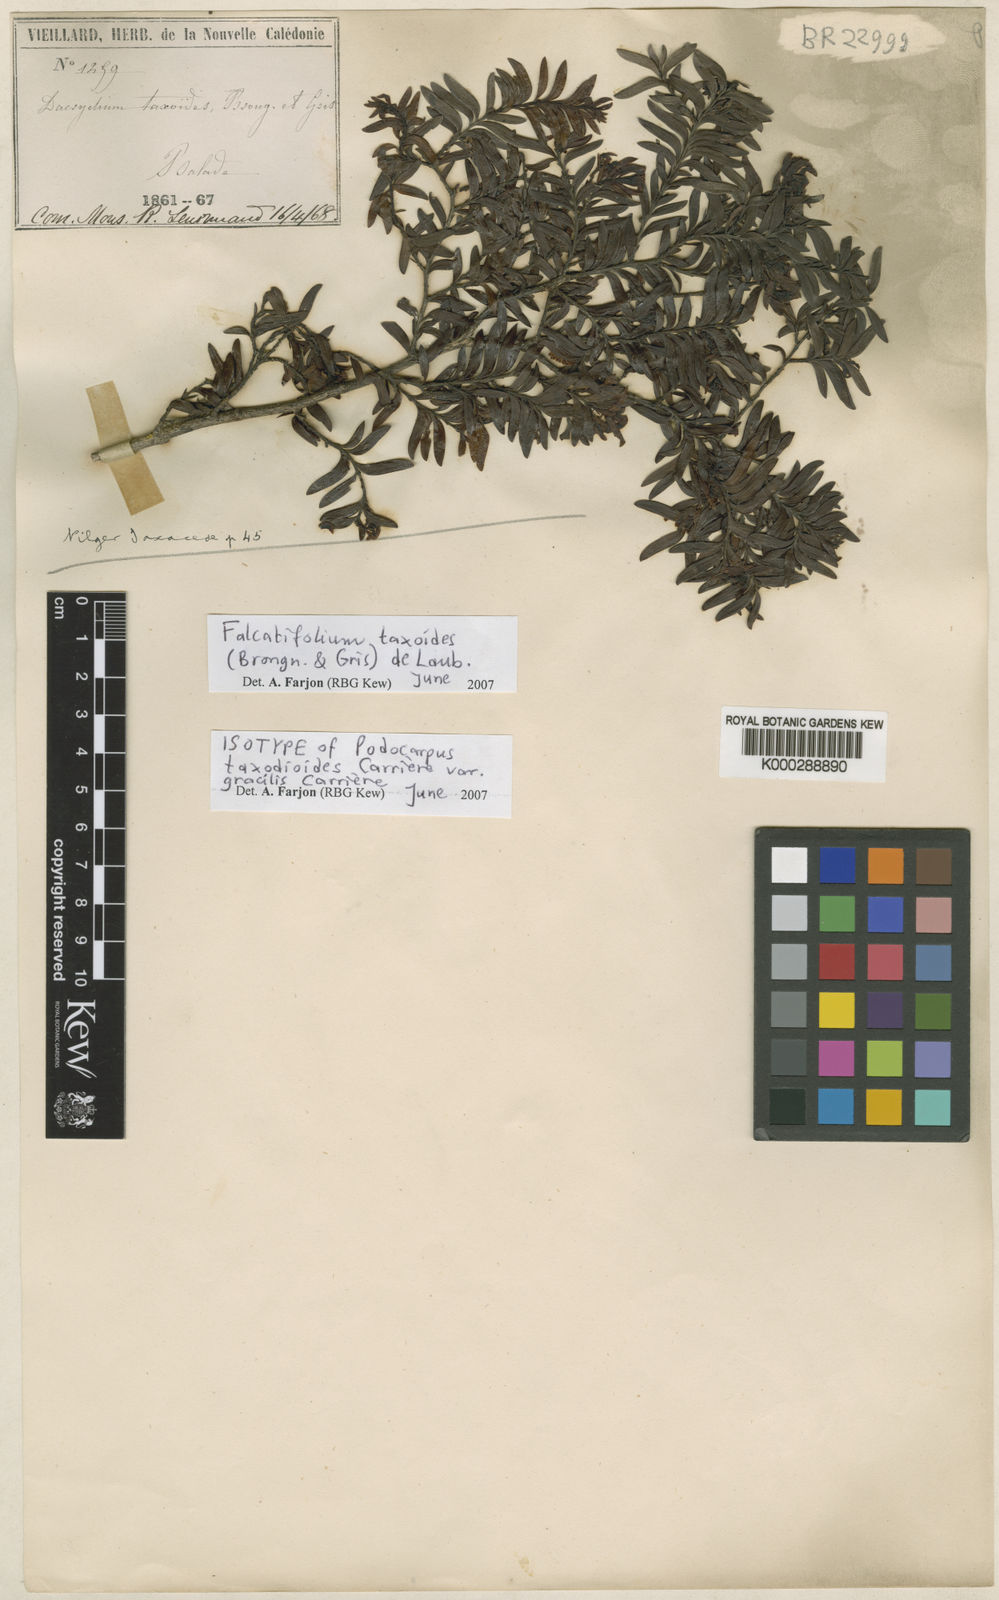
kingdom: Plantae
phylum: Tracheophyta
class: Pinopsida
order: Pinales
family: Podocarpaceae
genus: Falcatifolium
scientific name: Falcatifolium taxoides
